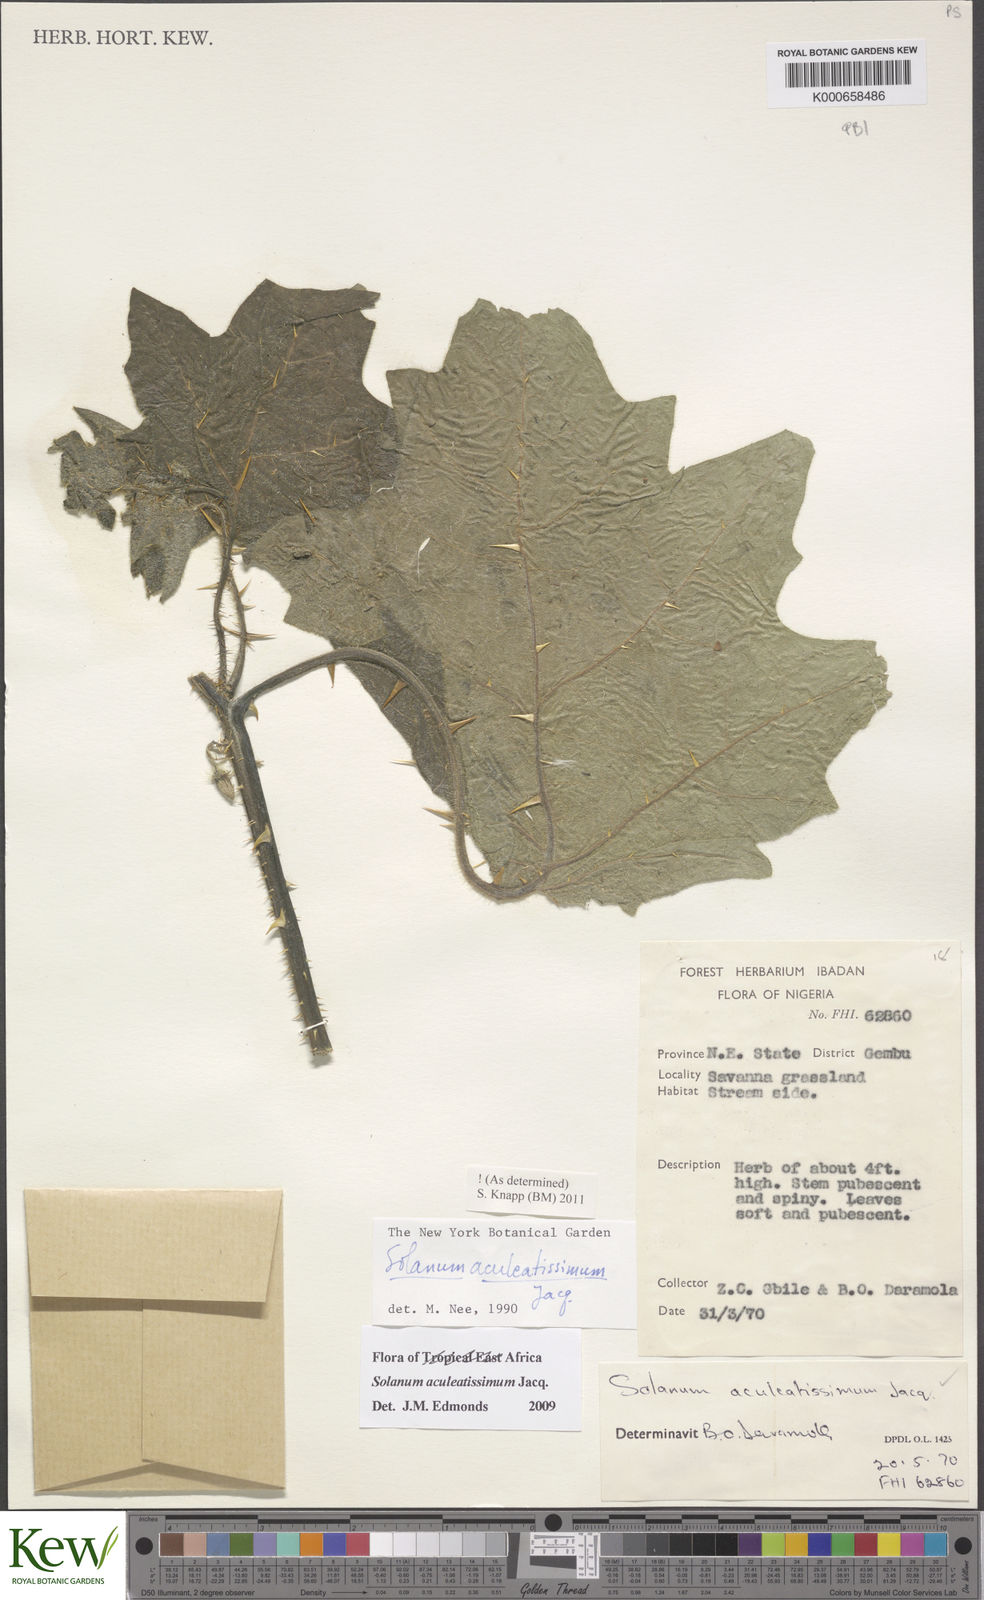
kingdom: Plantae
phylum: Tracheophyta
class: Magnoliopsida
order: Solanales
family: Solanaceae
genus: Solanum
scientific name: Solanum aculeatissimum
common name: Dutch eggplant
